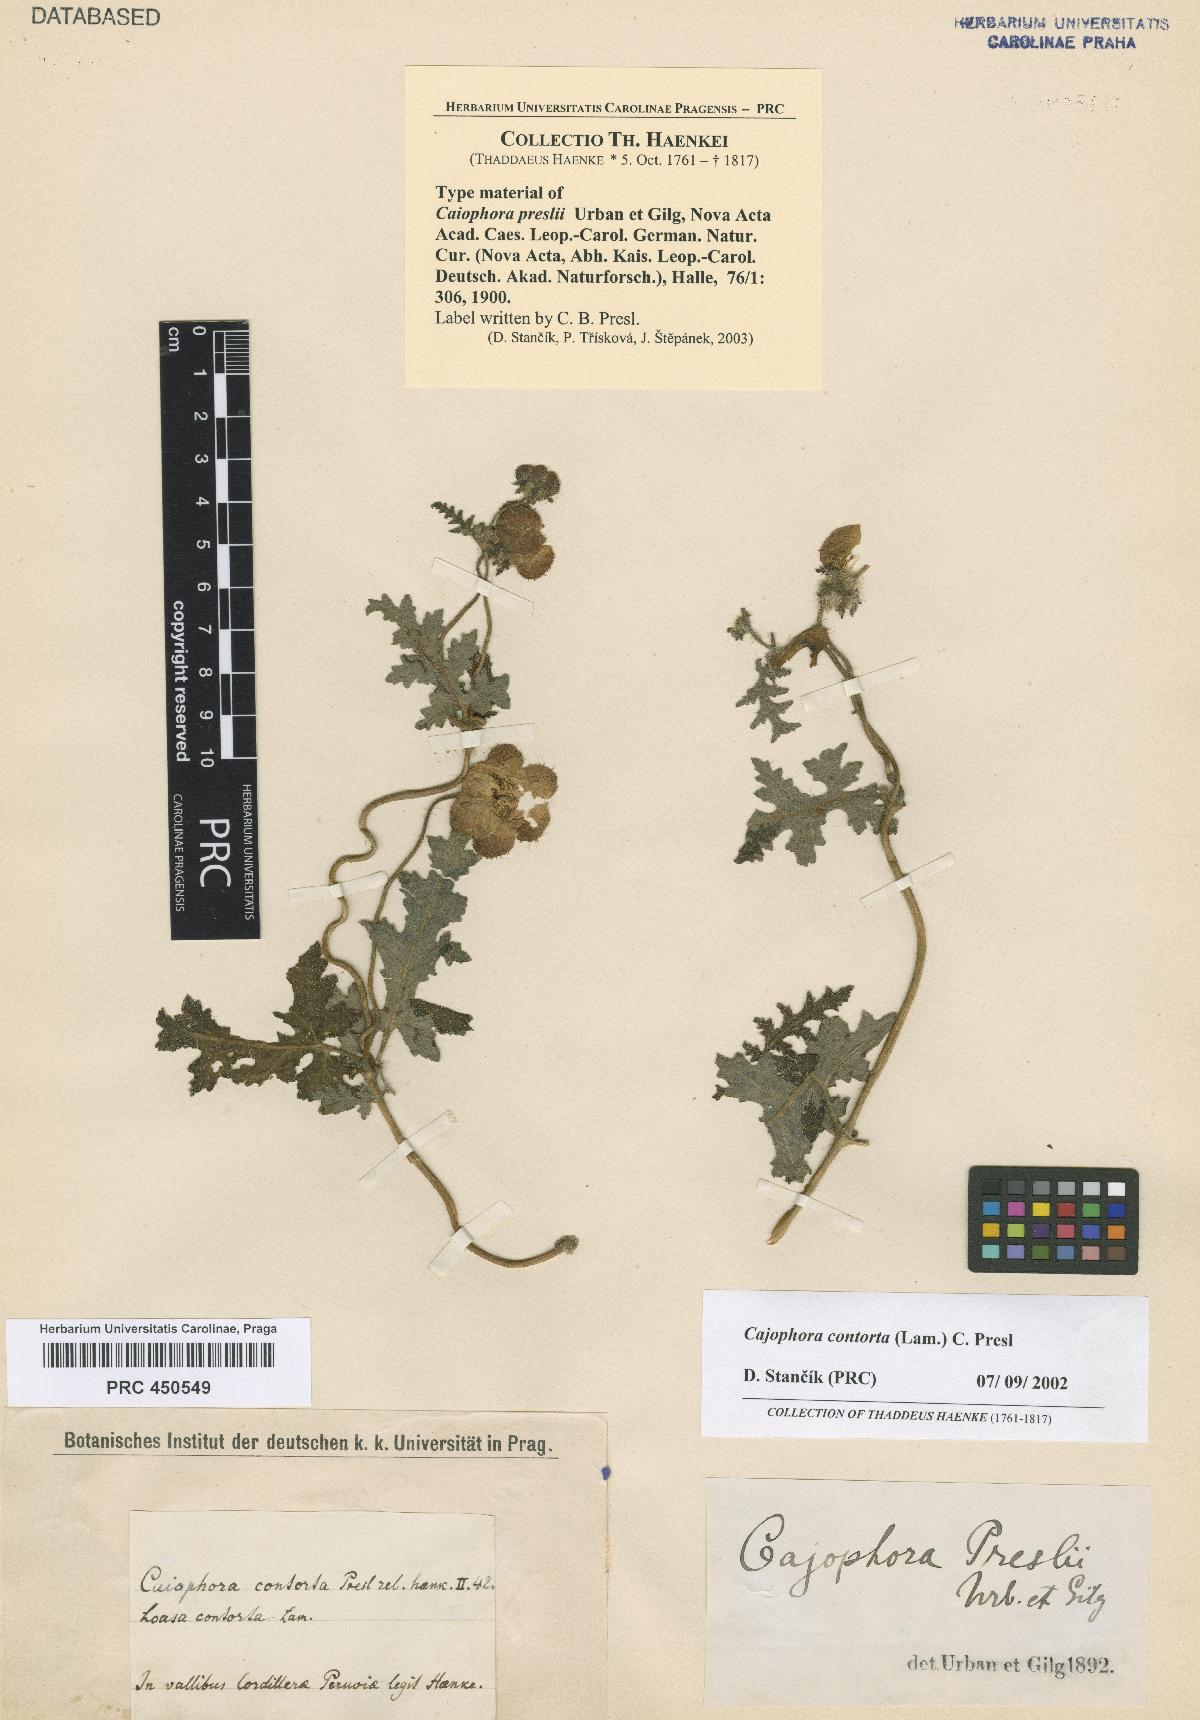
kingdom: Plantae
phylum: Tracheophyta
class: Magnoliopsida
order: Cornales
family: Loasaceae
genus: Caiophora
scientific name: Caiophora cirsiifolia
